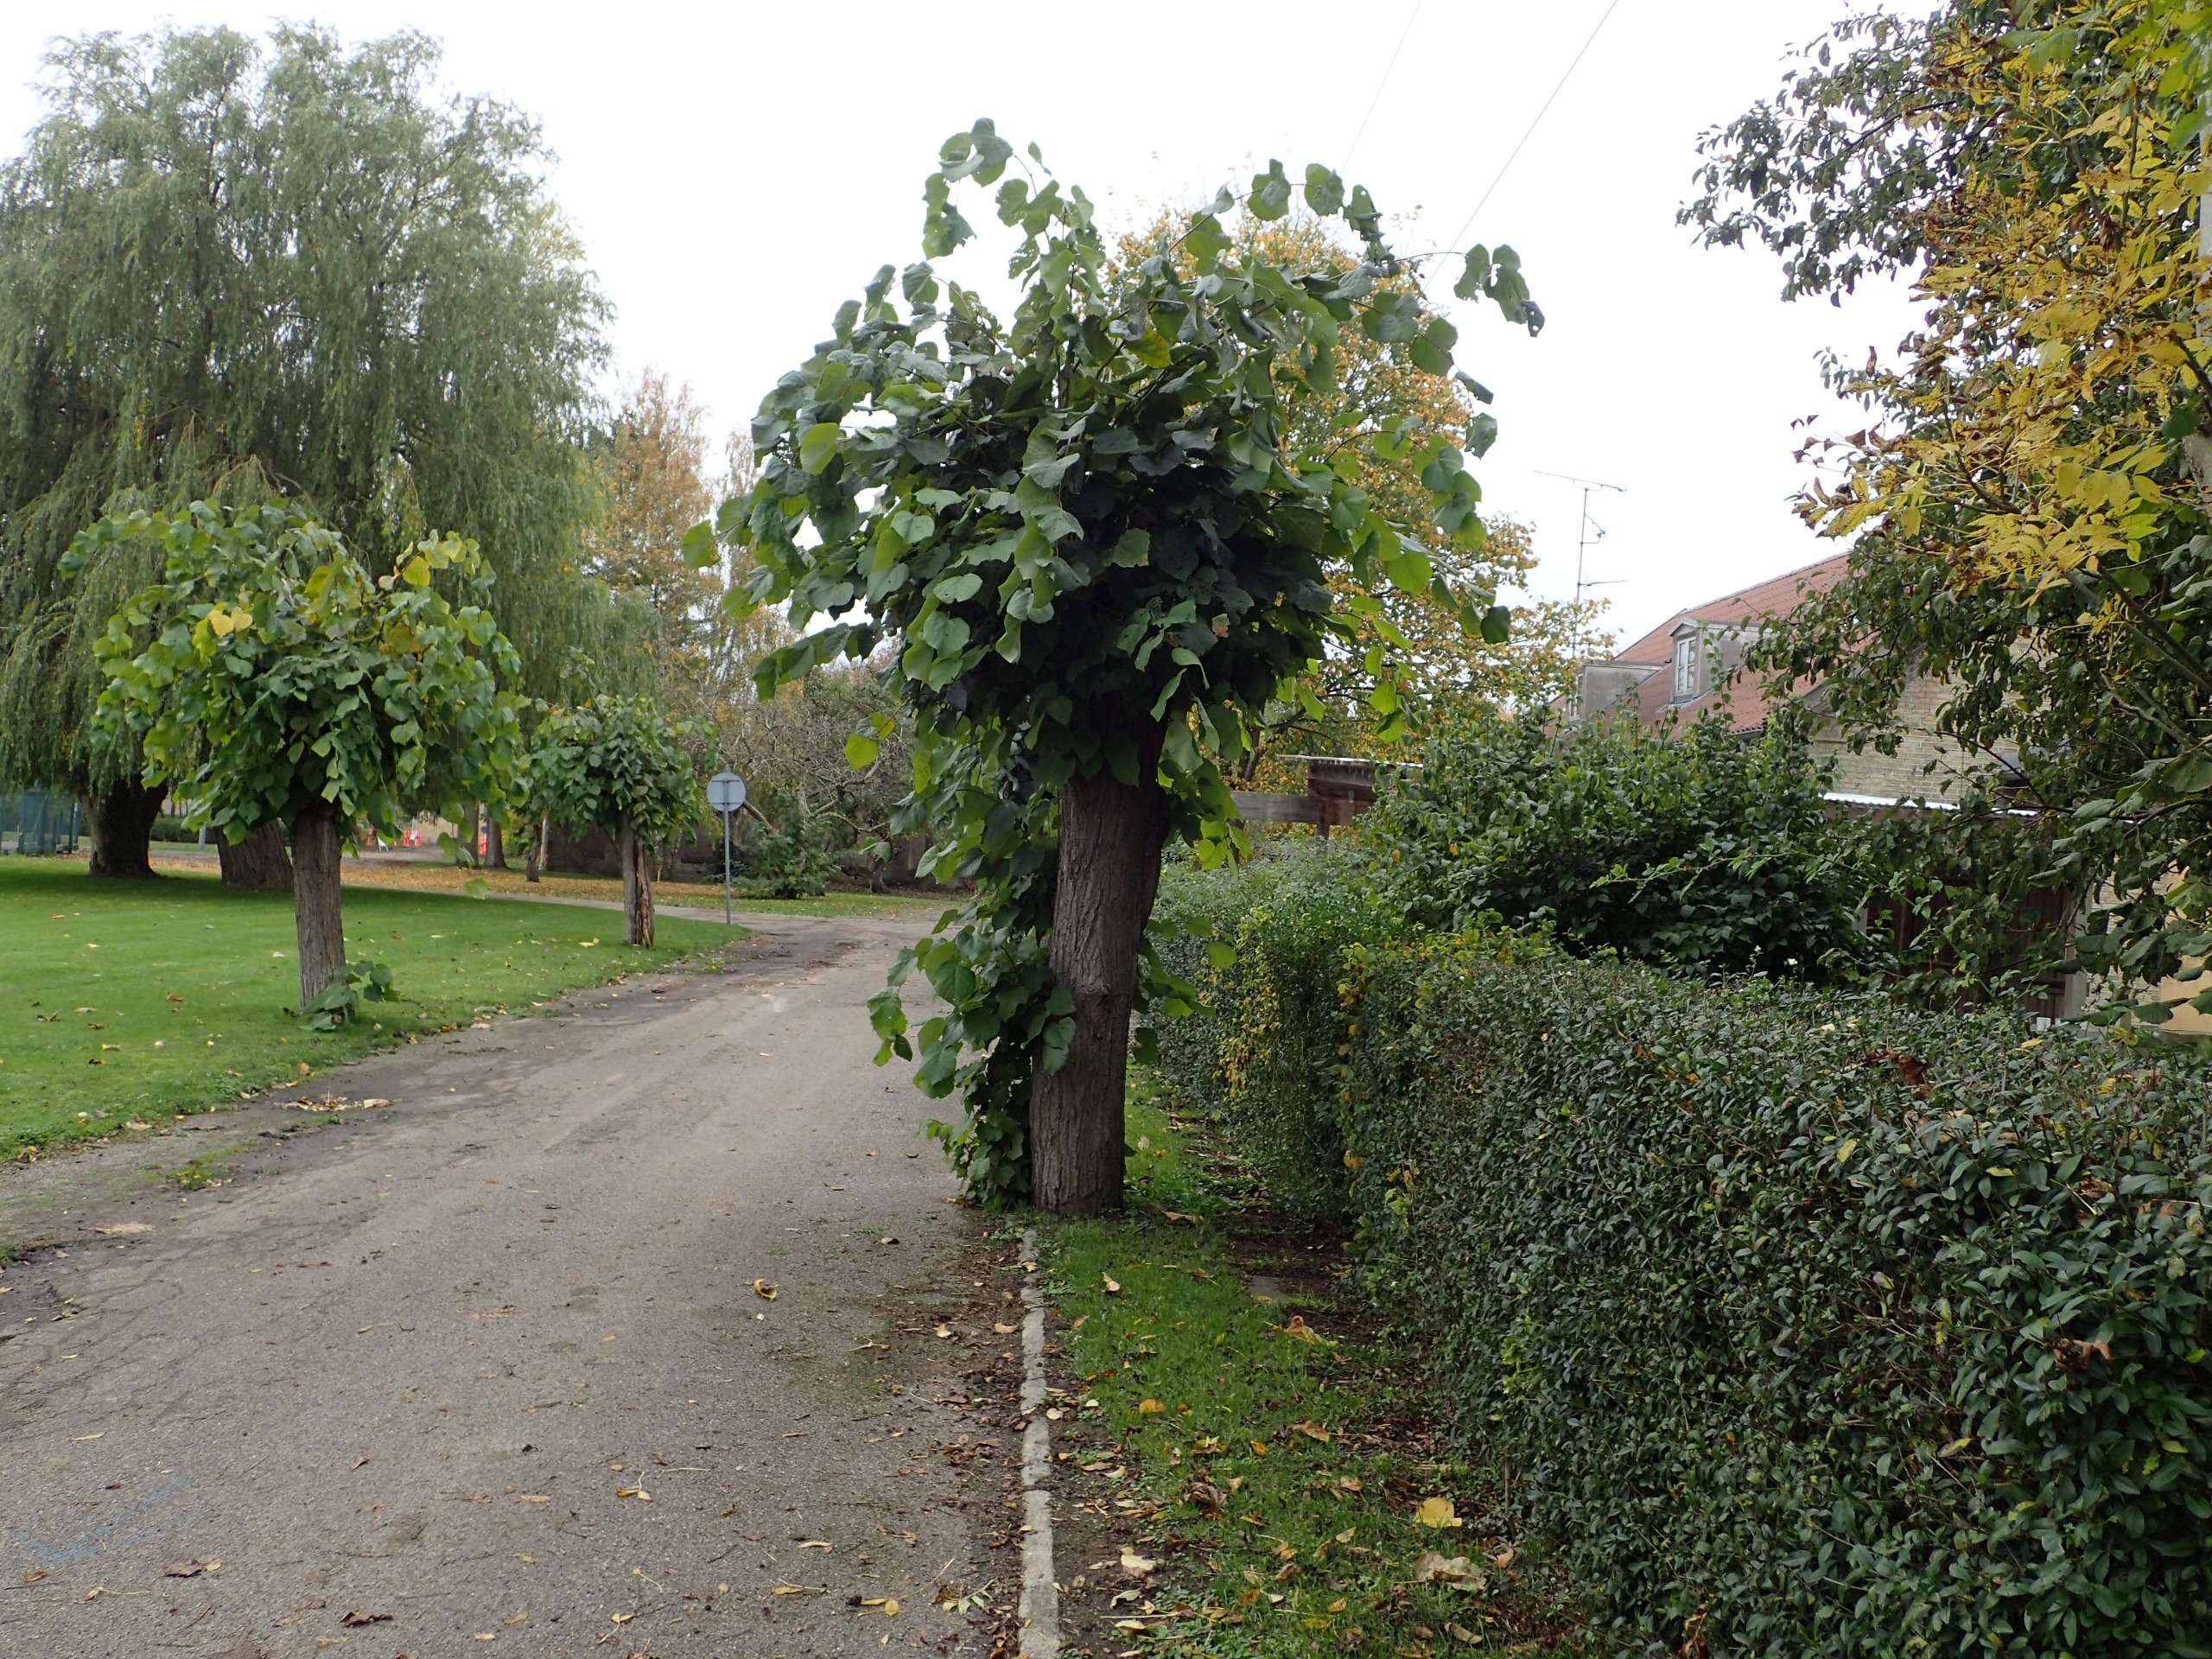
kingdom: Plantae
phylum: Tracheophyta
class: Magnoliopsida
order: Malvales
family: Malvaceae
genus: Tilia
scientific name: Tilia americana
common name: Amerikansk lind
